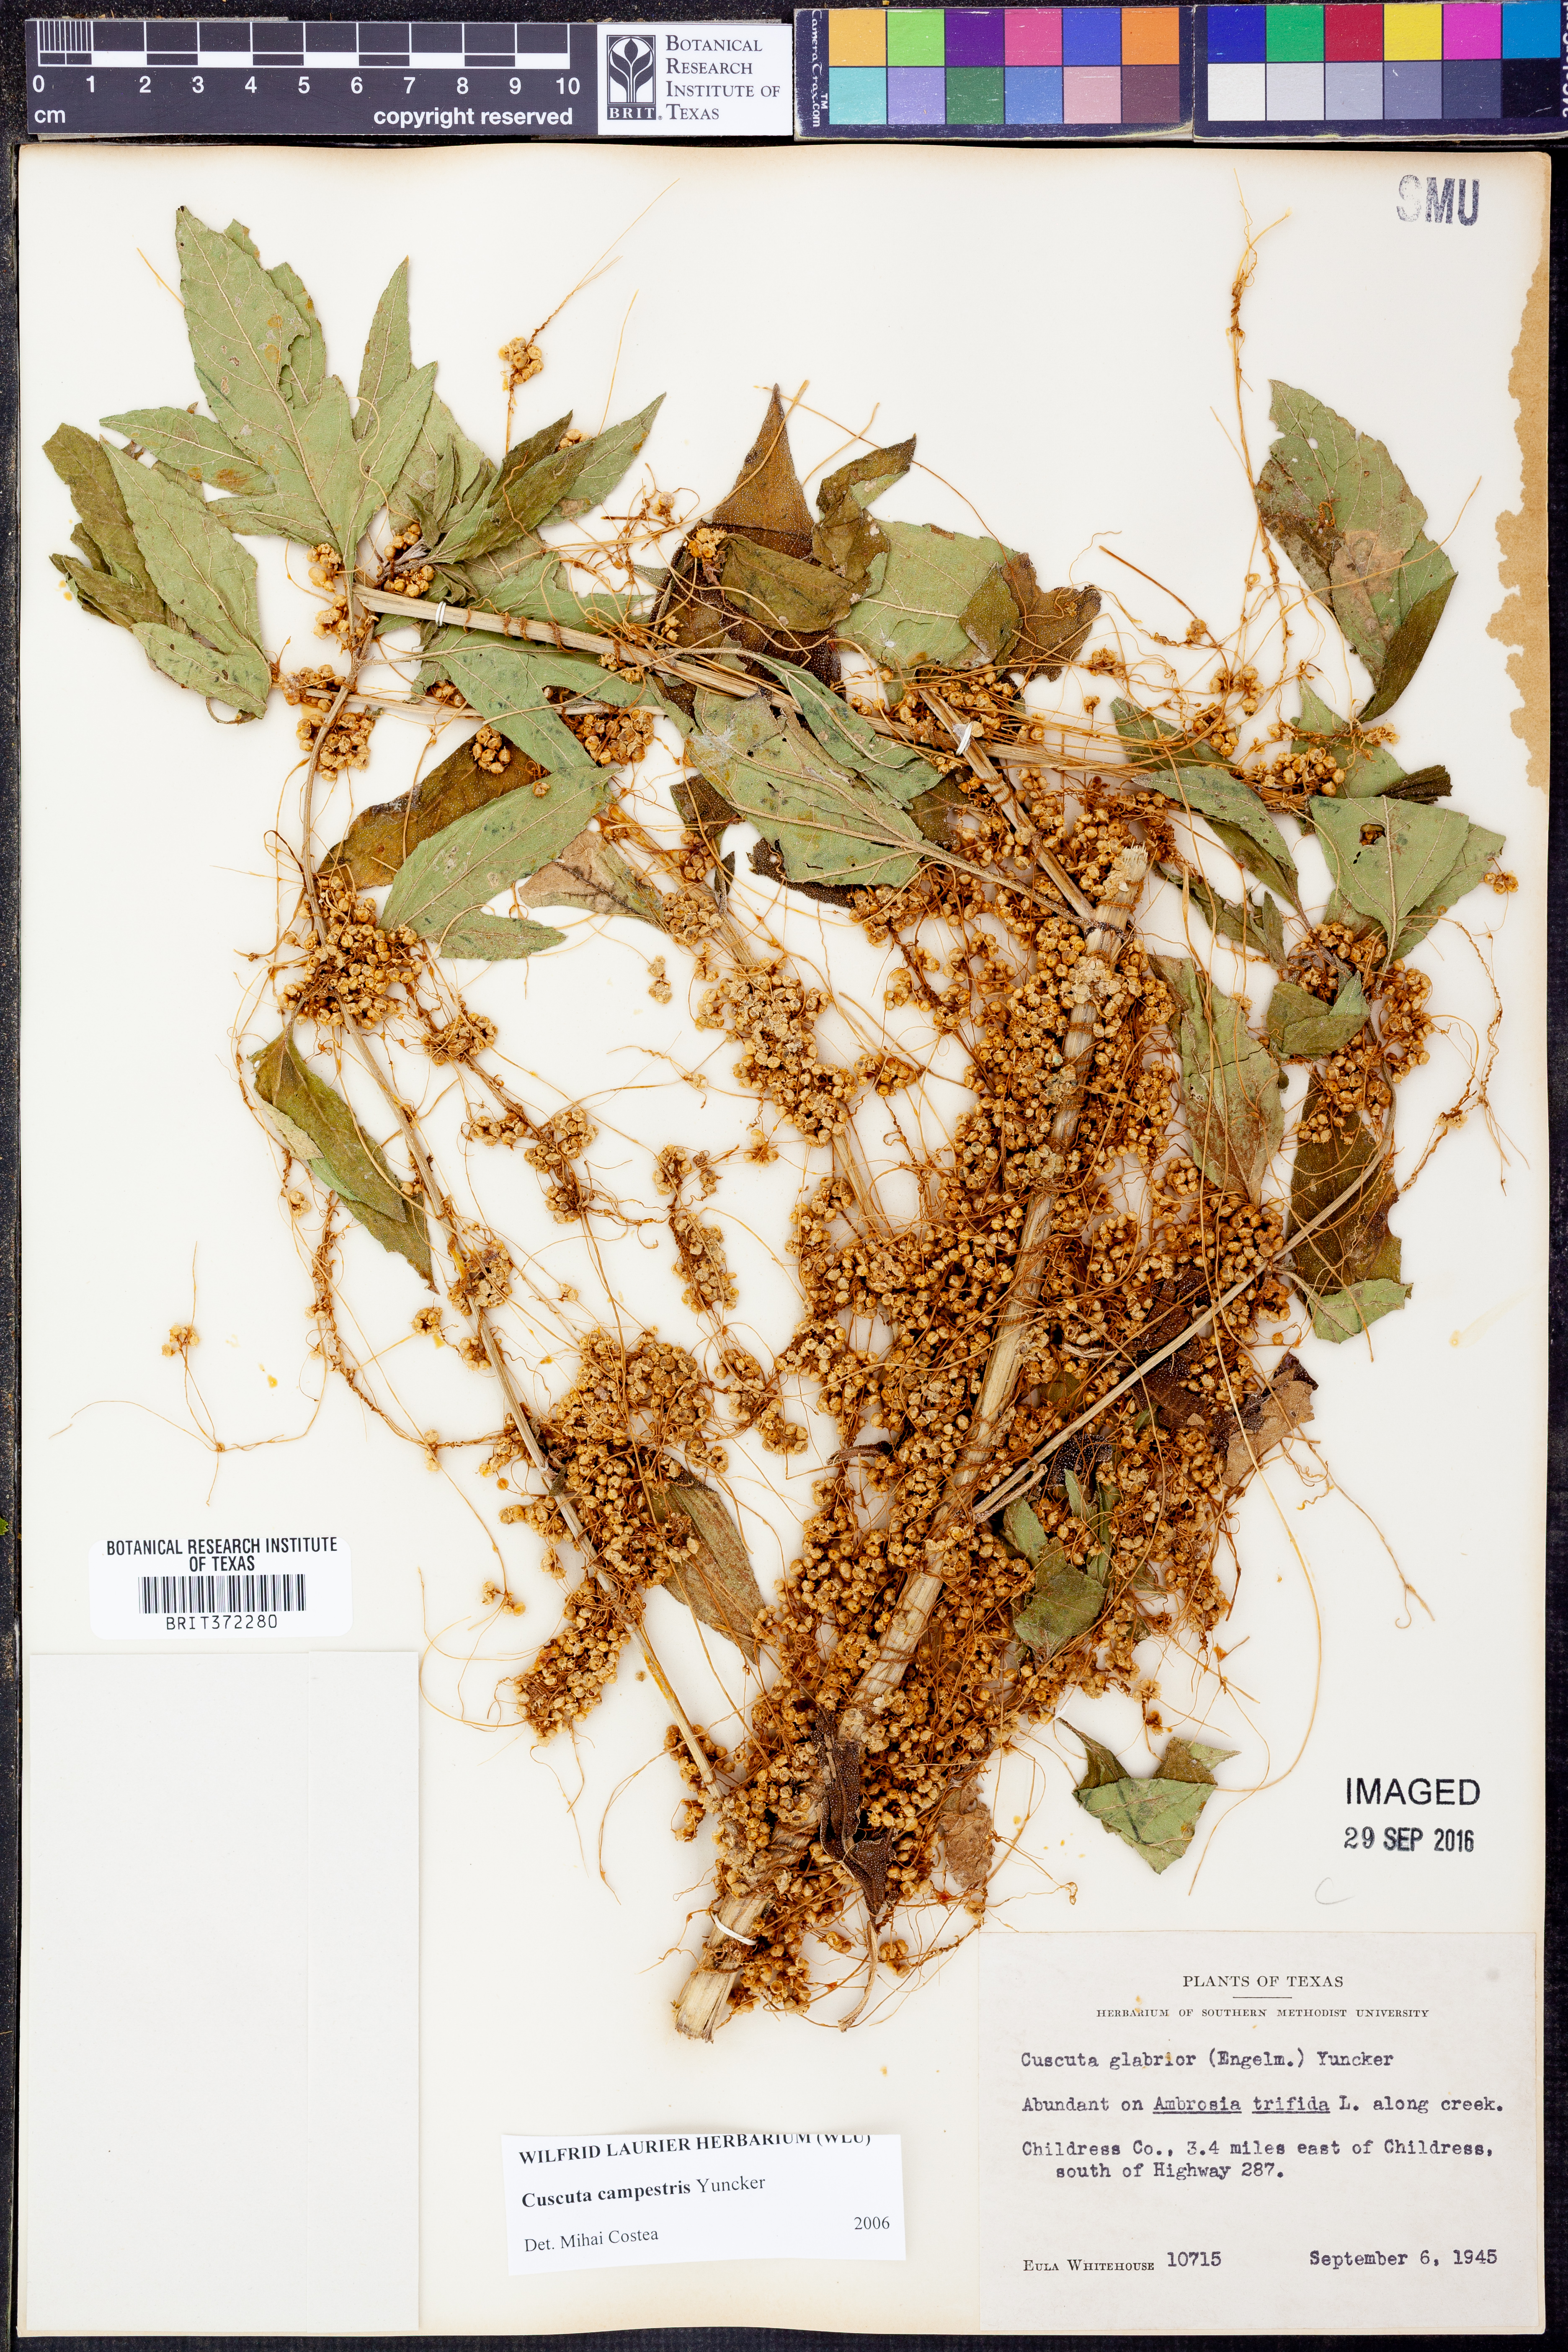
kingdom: Plantae
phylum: Tracheophyta
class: Magnoliopsida
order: Solanales
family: Convolvulaceae
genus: Cuscuta
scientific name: Cuscuta campestris
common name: Yellow dodder
